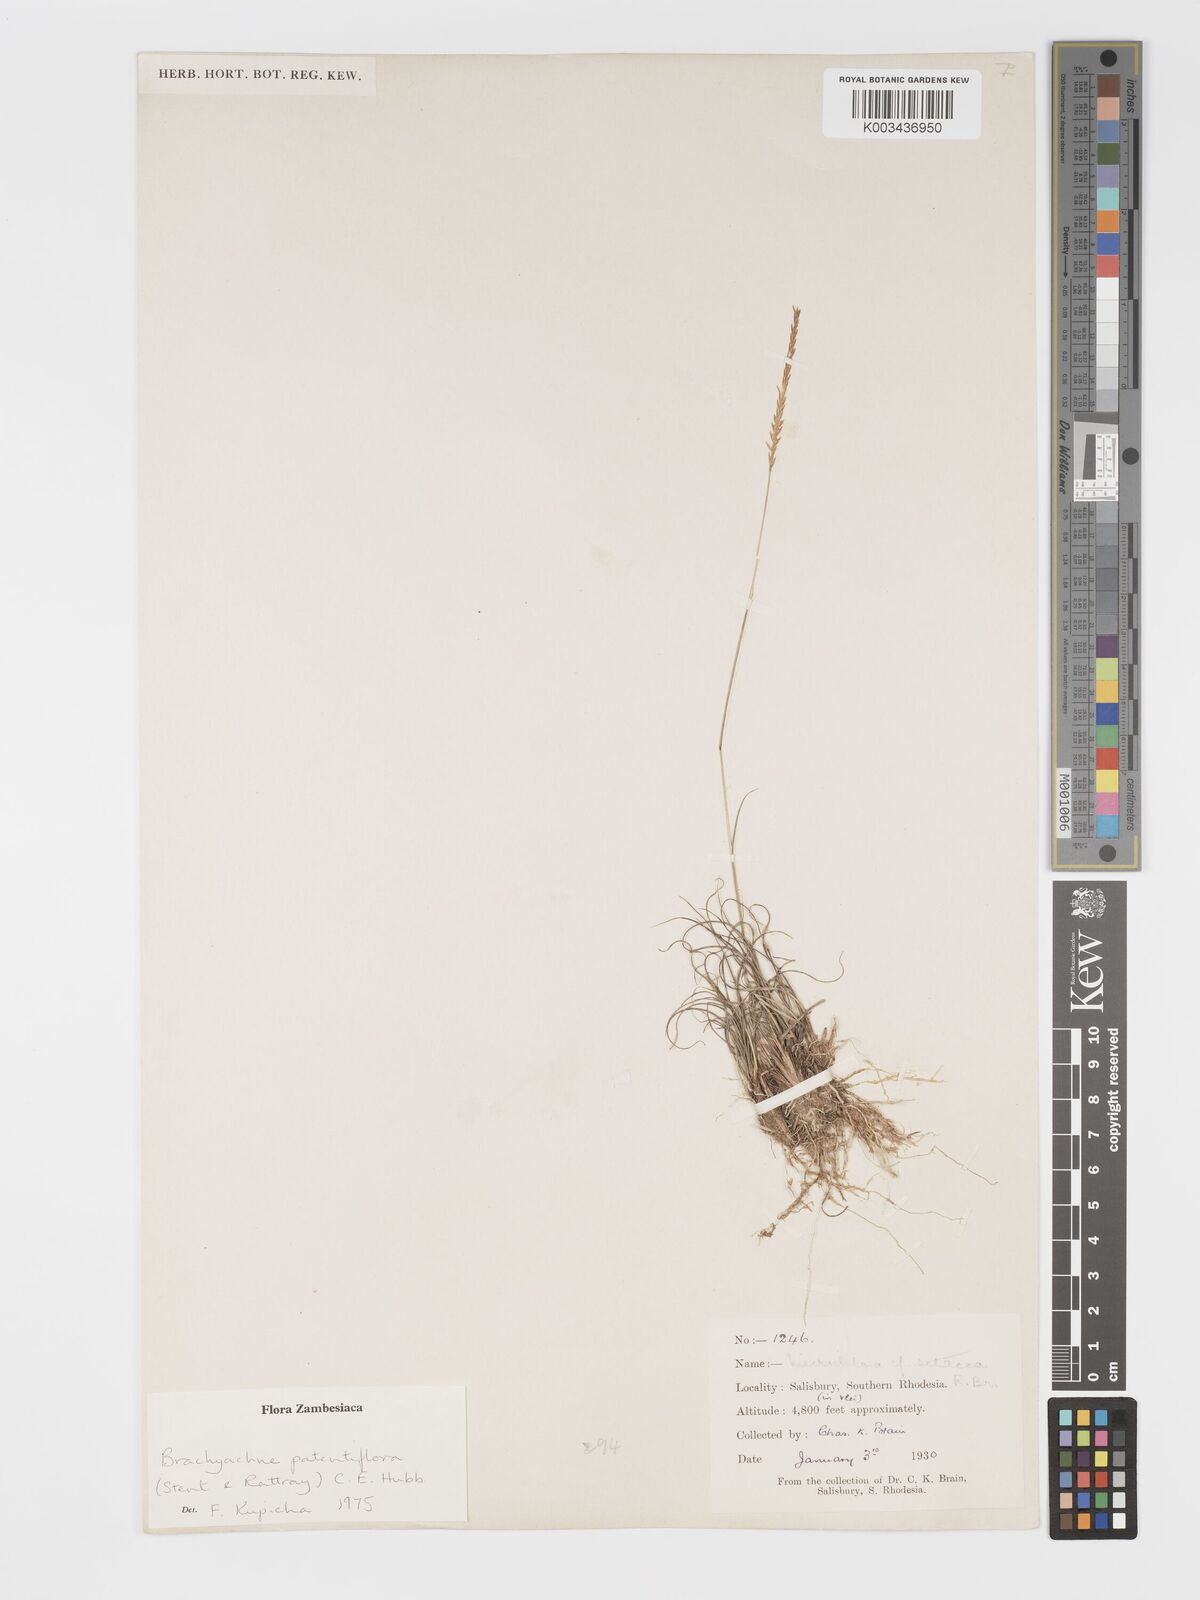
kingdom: Plantae
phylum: Tracheophyta
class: Liliopsida
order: Poales
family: Poaceae
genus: Micrachne
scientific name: Micrachne patentiflora
